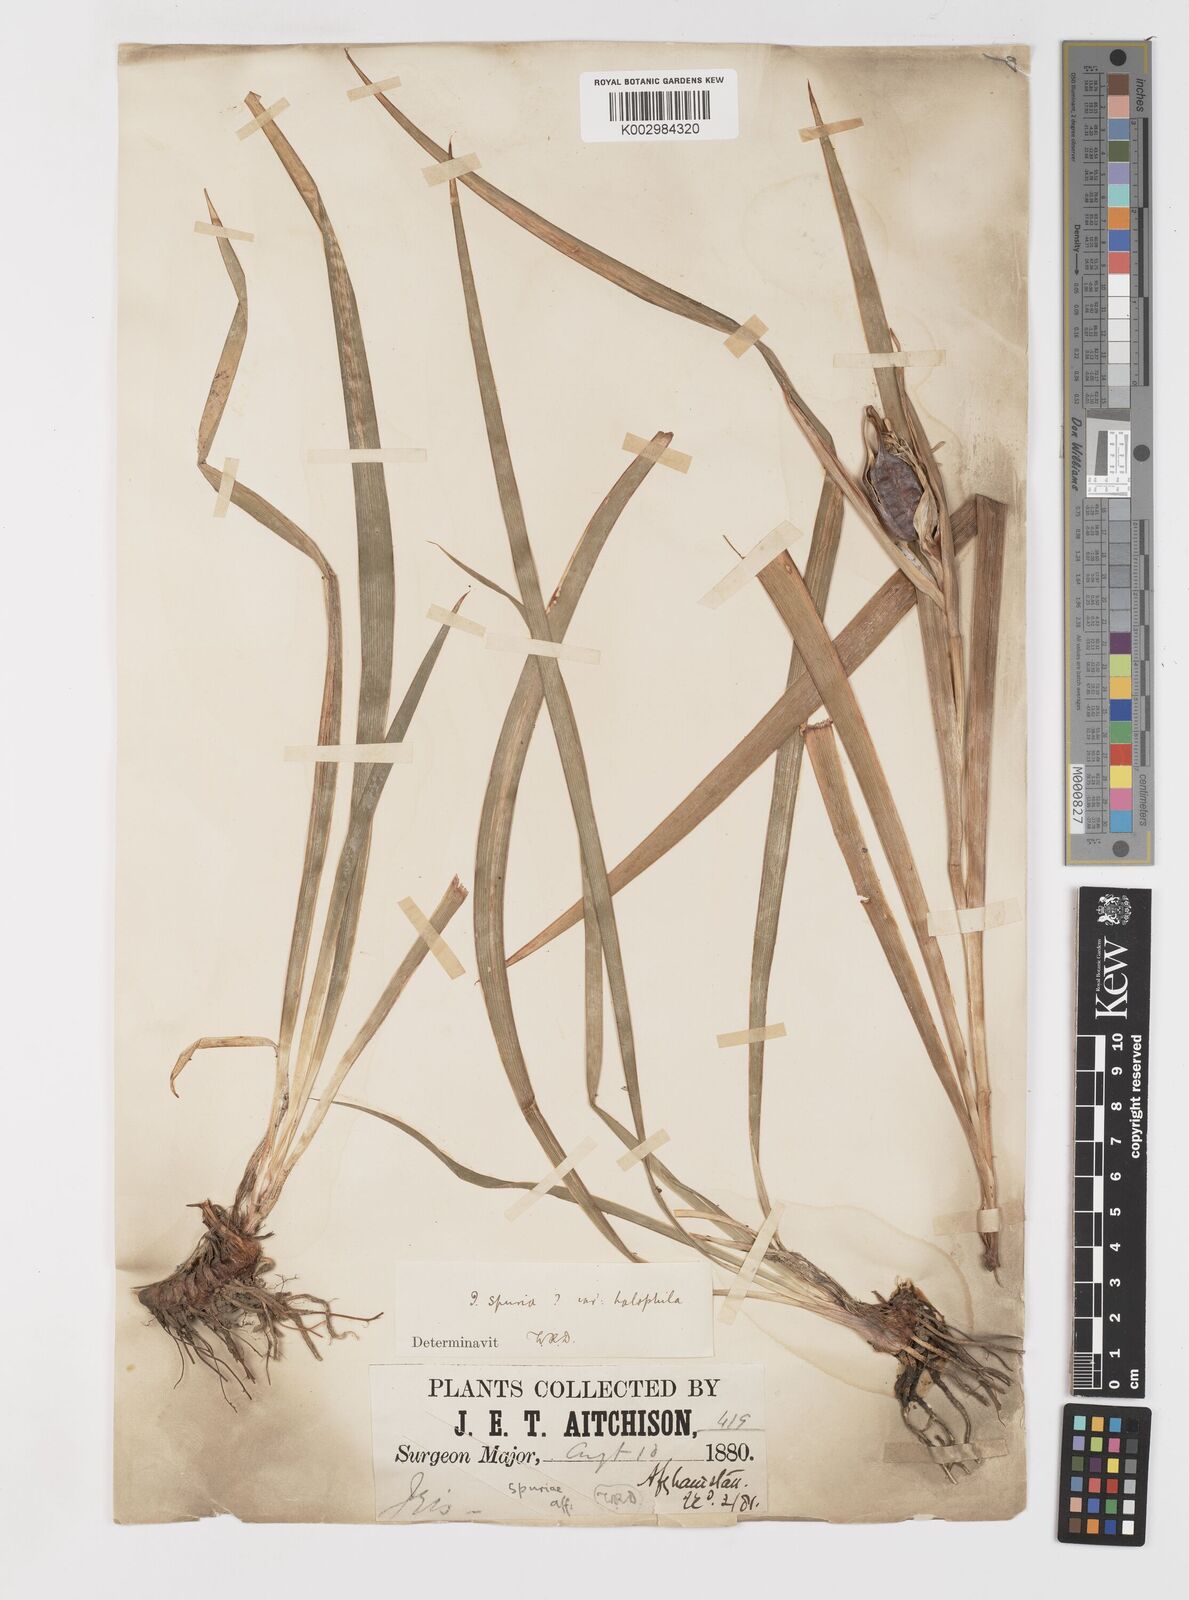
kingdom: Plantae
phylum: Tracheophyta
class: Liliopsida
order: Asparagales
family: Iridaceae
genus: Iris
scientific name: Iris spuria
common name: Blue iris
